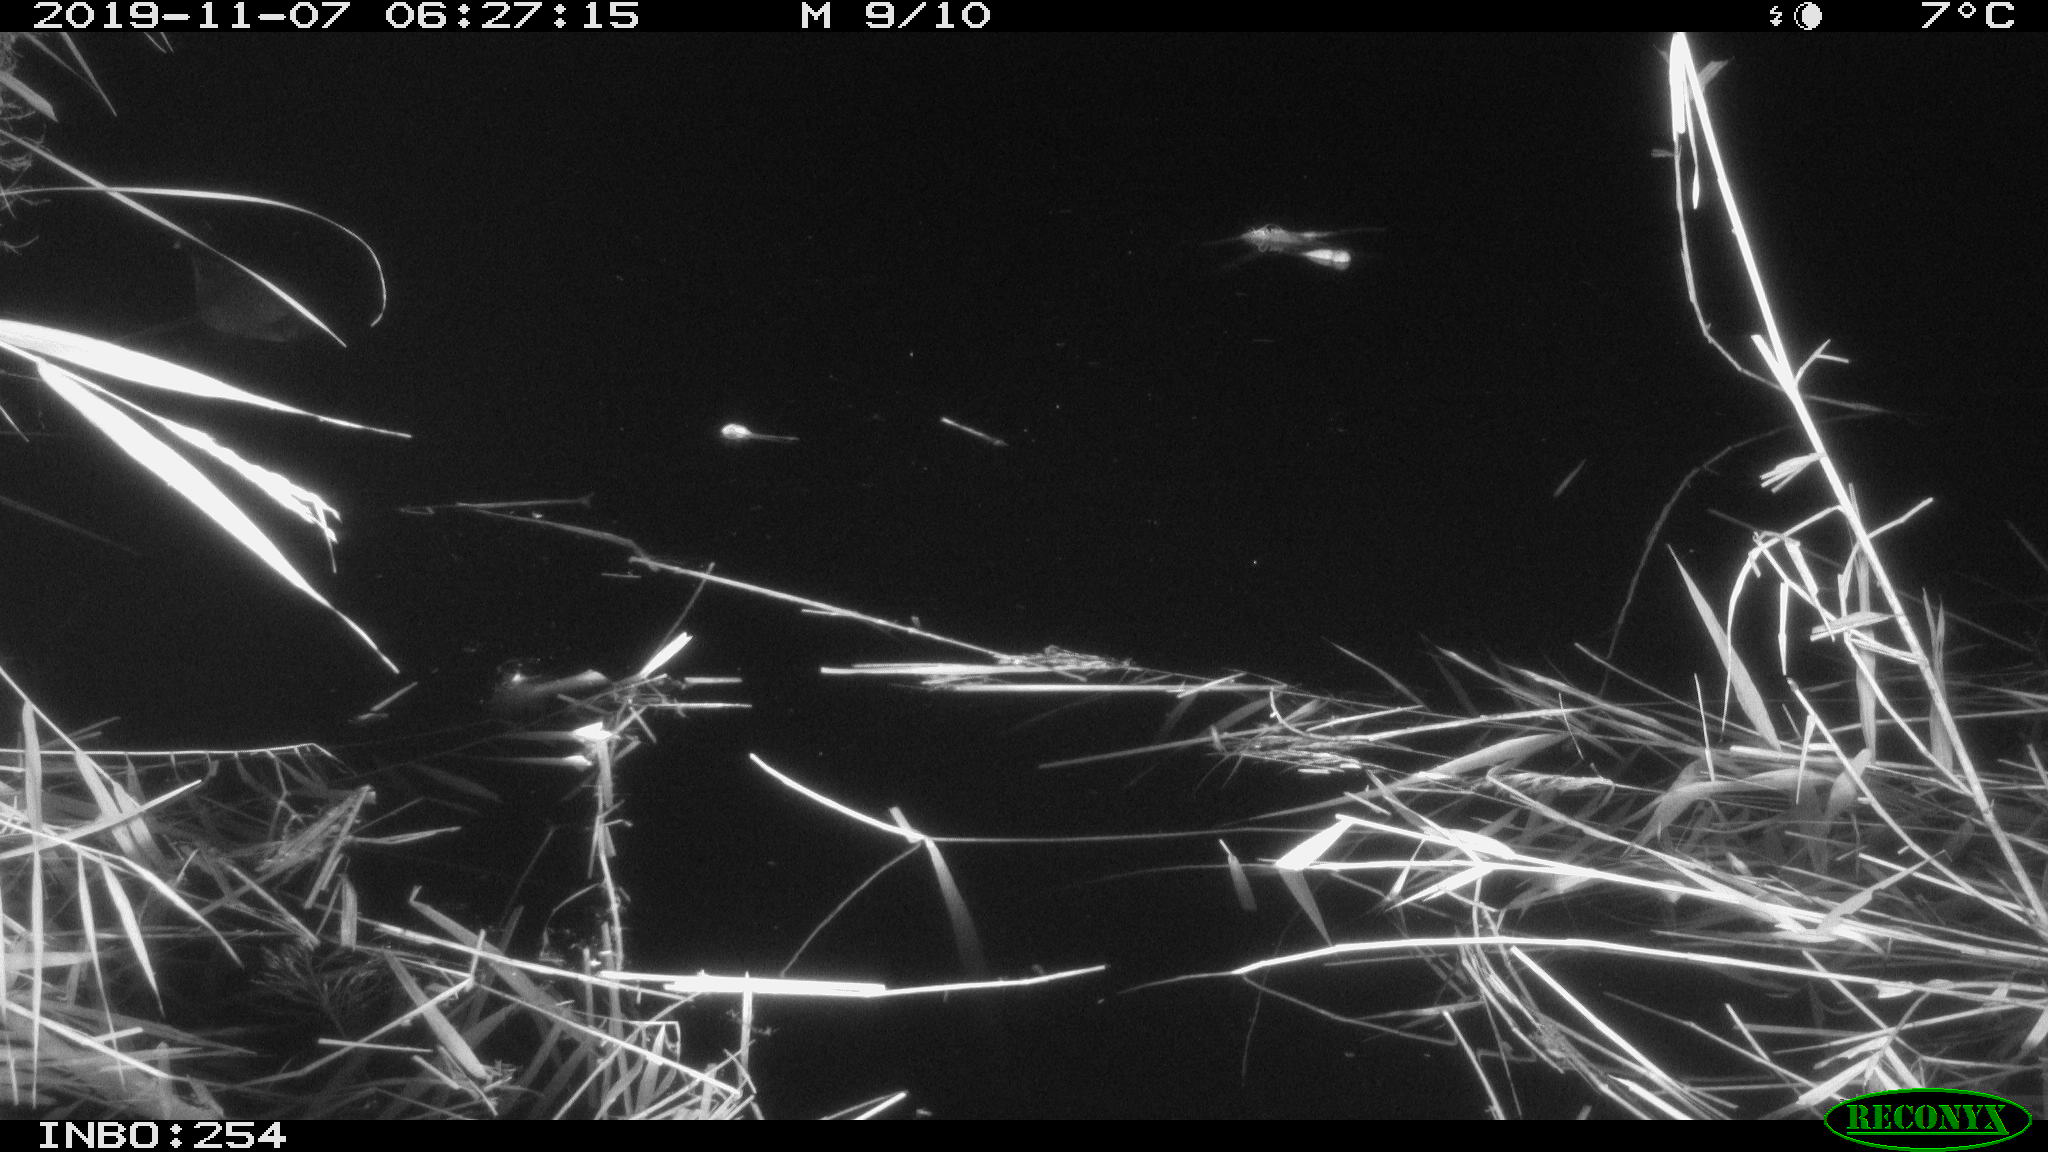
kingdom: Animalia
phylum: Chordata
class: Aves
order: Gruiformes
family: Rallidae
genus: Gallinula
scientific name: Gallinula chloropus
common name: Common moorhen
